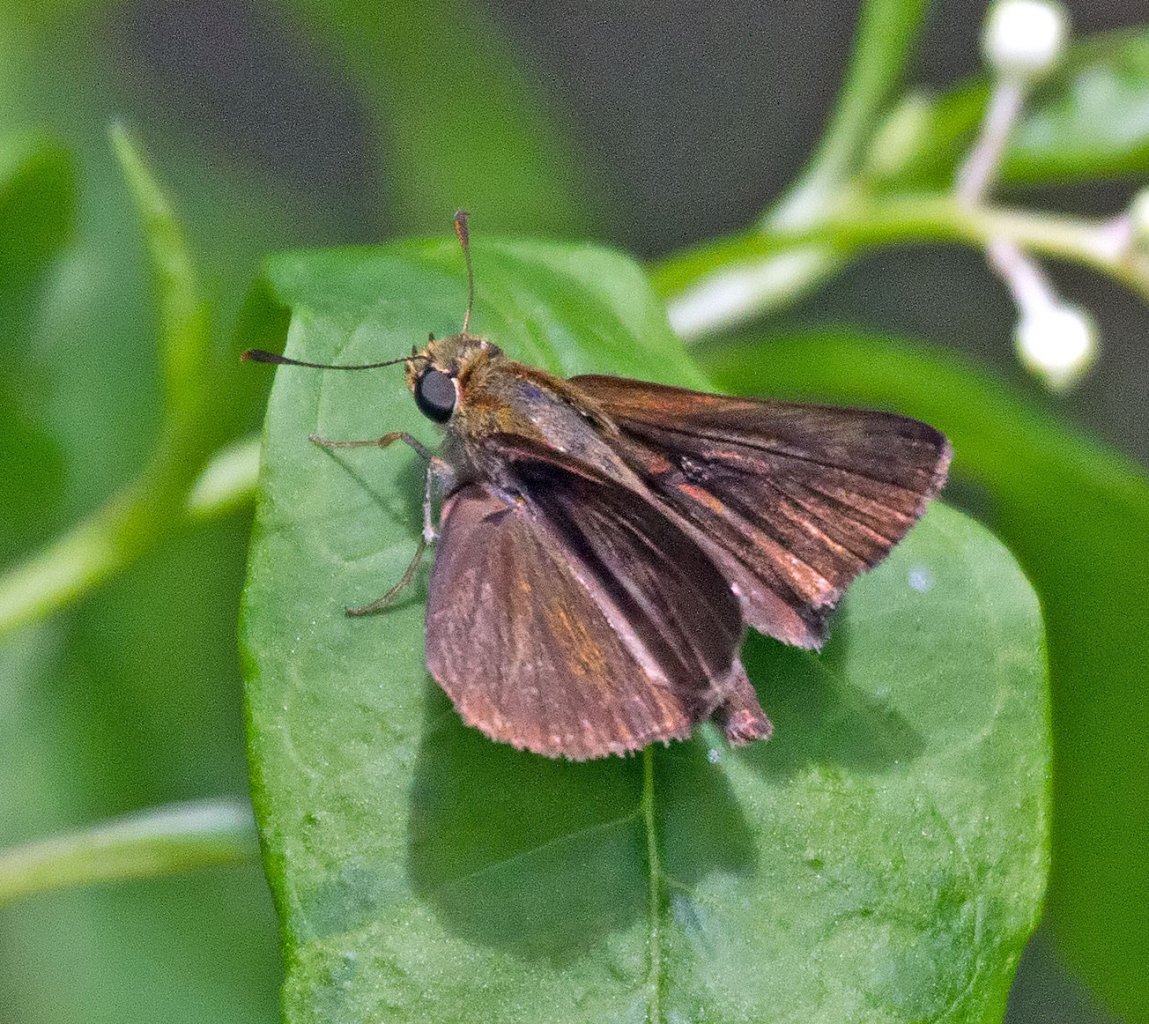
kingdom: Animalia
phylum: Arthropoda
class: Insecta
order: Lepidoptera
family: Hesperiidae
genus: Euphyes
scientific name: Euphyes vestris
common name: Dun Skipper
